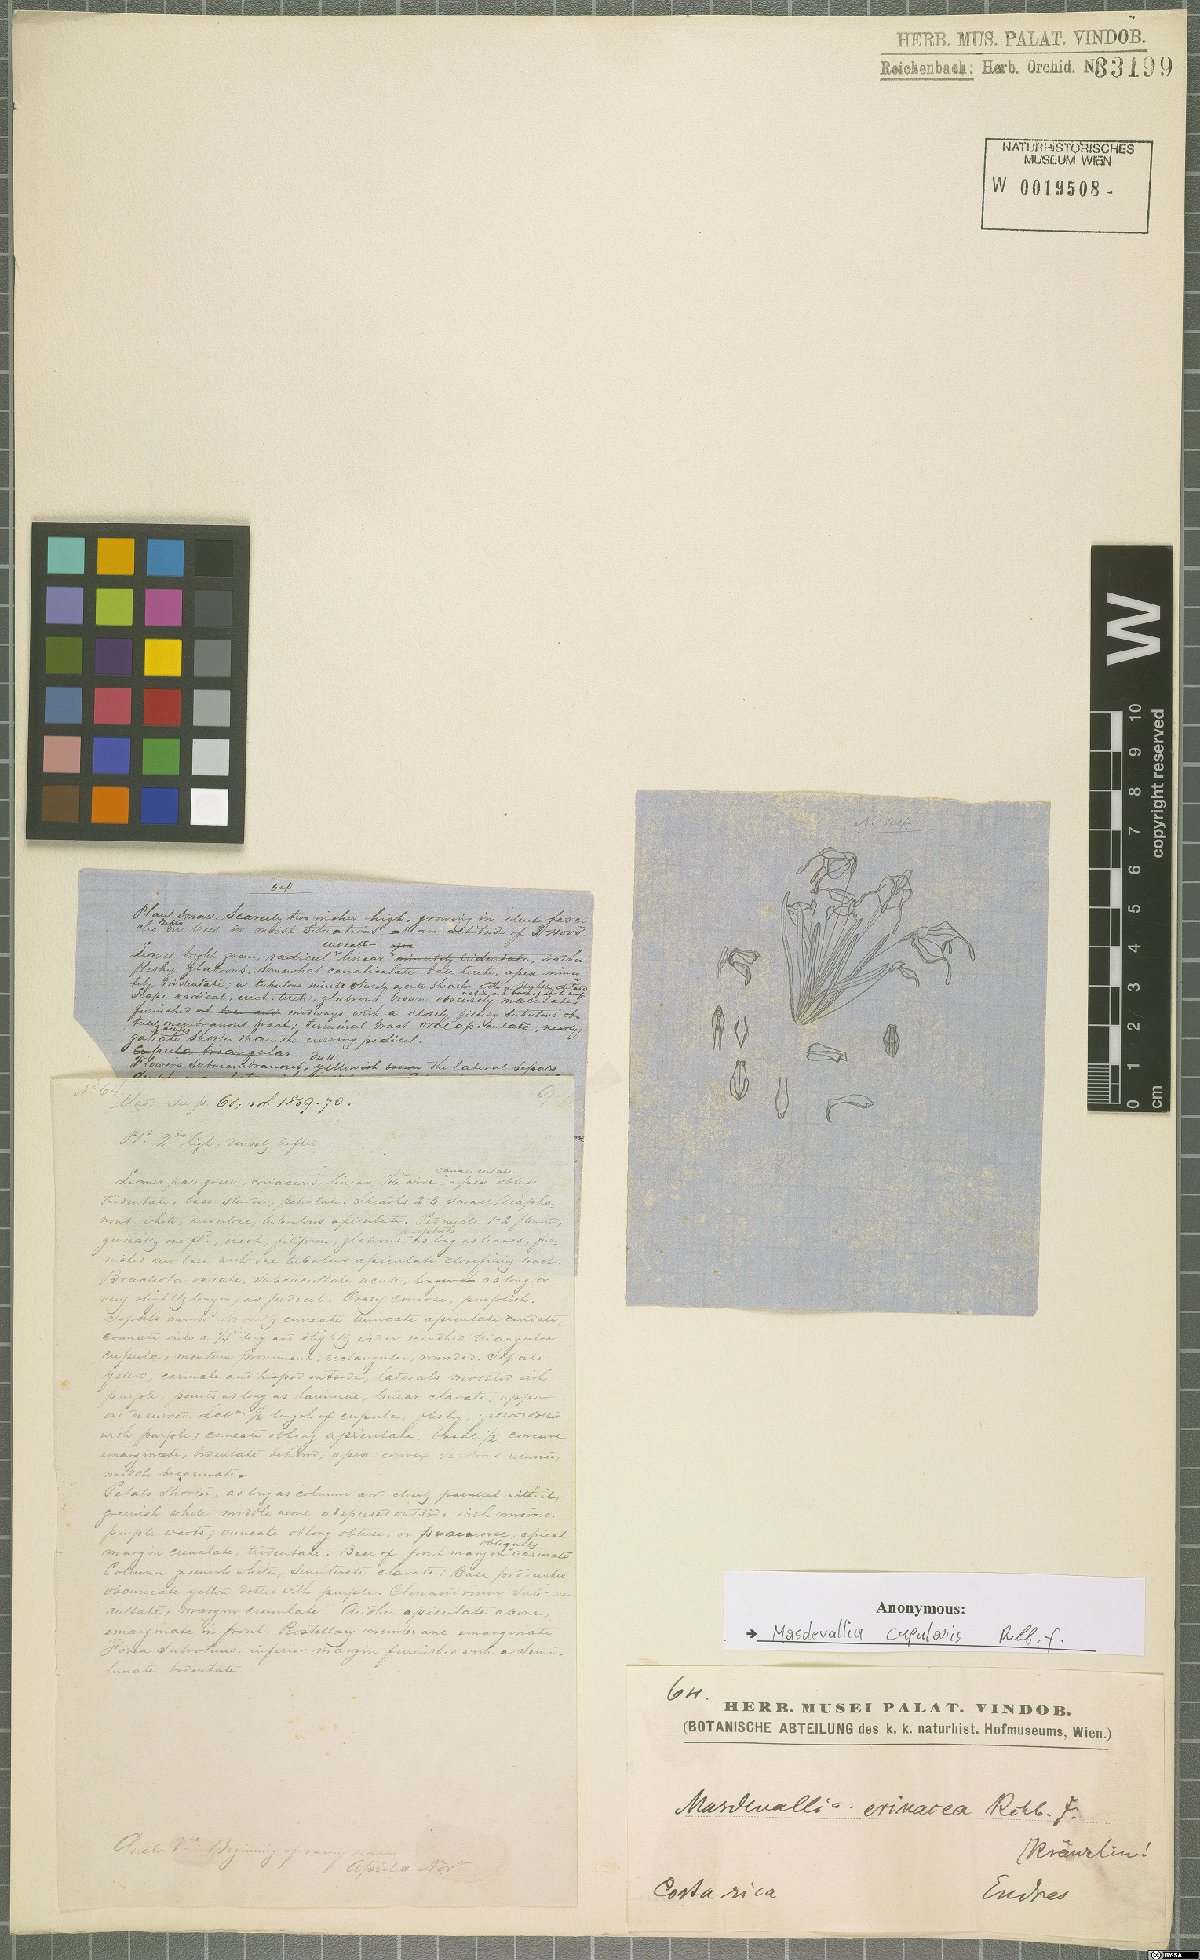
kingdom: Plantae
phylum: Tracheophyta
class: Liliopsida
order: Asparagales
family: Orchidaceae
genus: Diodonopsis
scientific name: Diodonopsis erinacea
